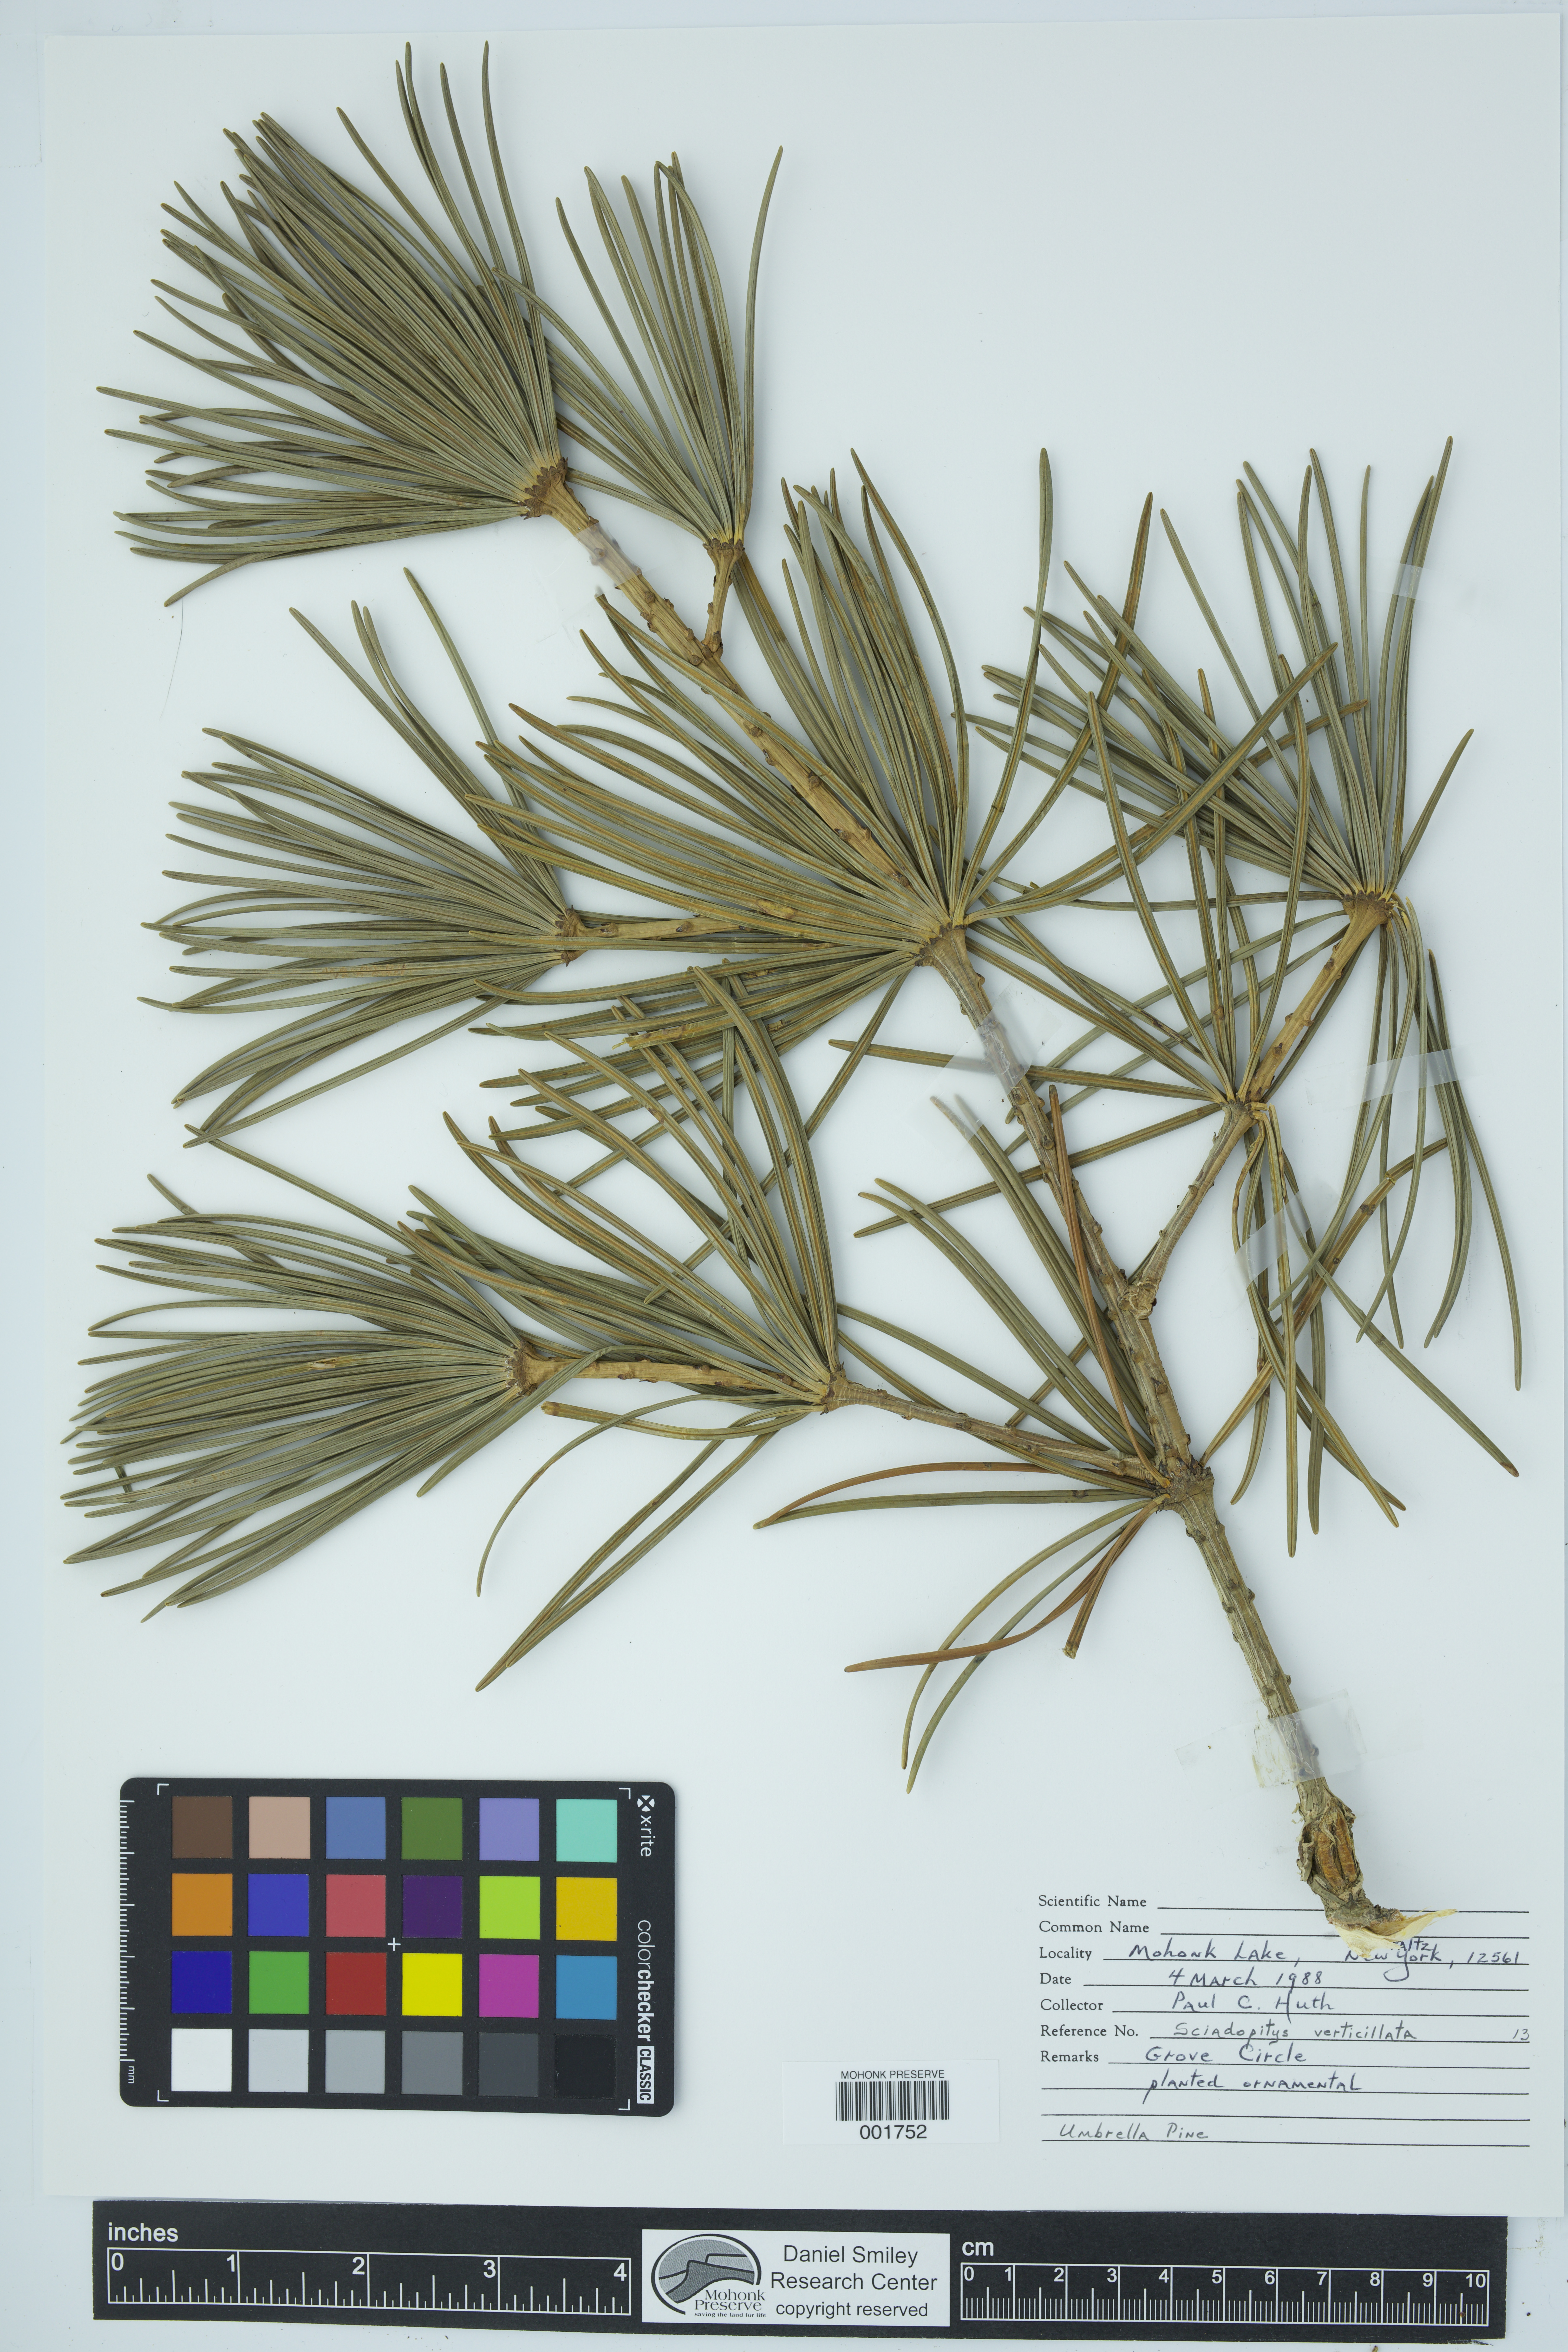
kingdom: Plantae
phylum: Tracheophyta
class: Pinopsida
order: Pinales
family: Sciadopityaceae
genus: Sciadopitys
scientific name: Sciadopitys verticillata
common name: Japanese umbrella pine
